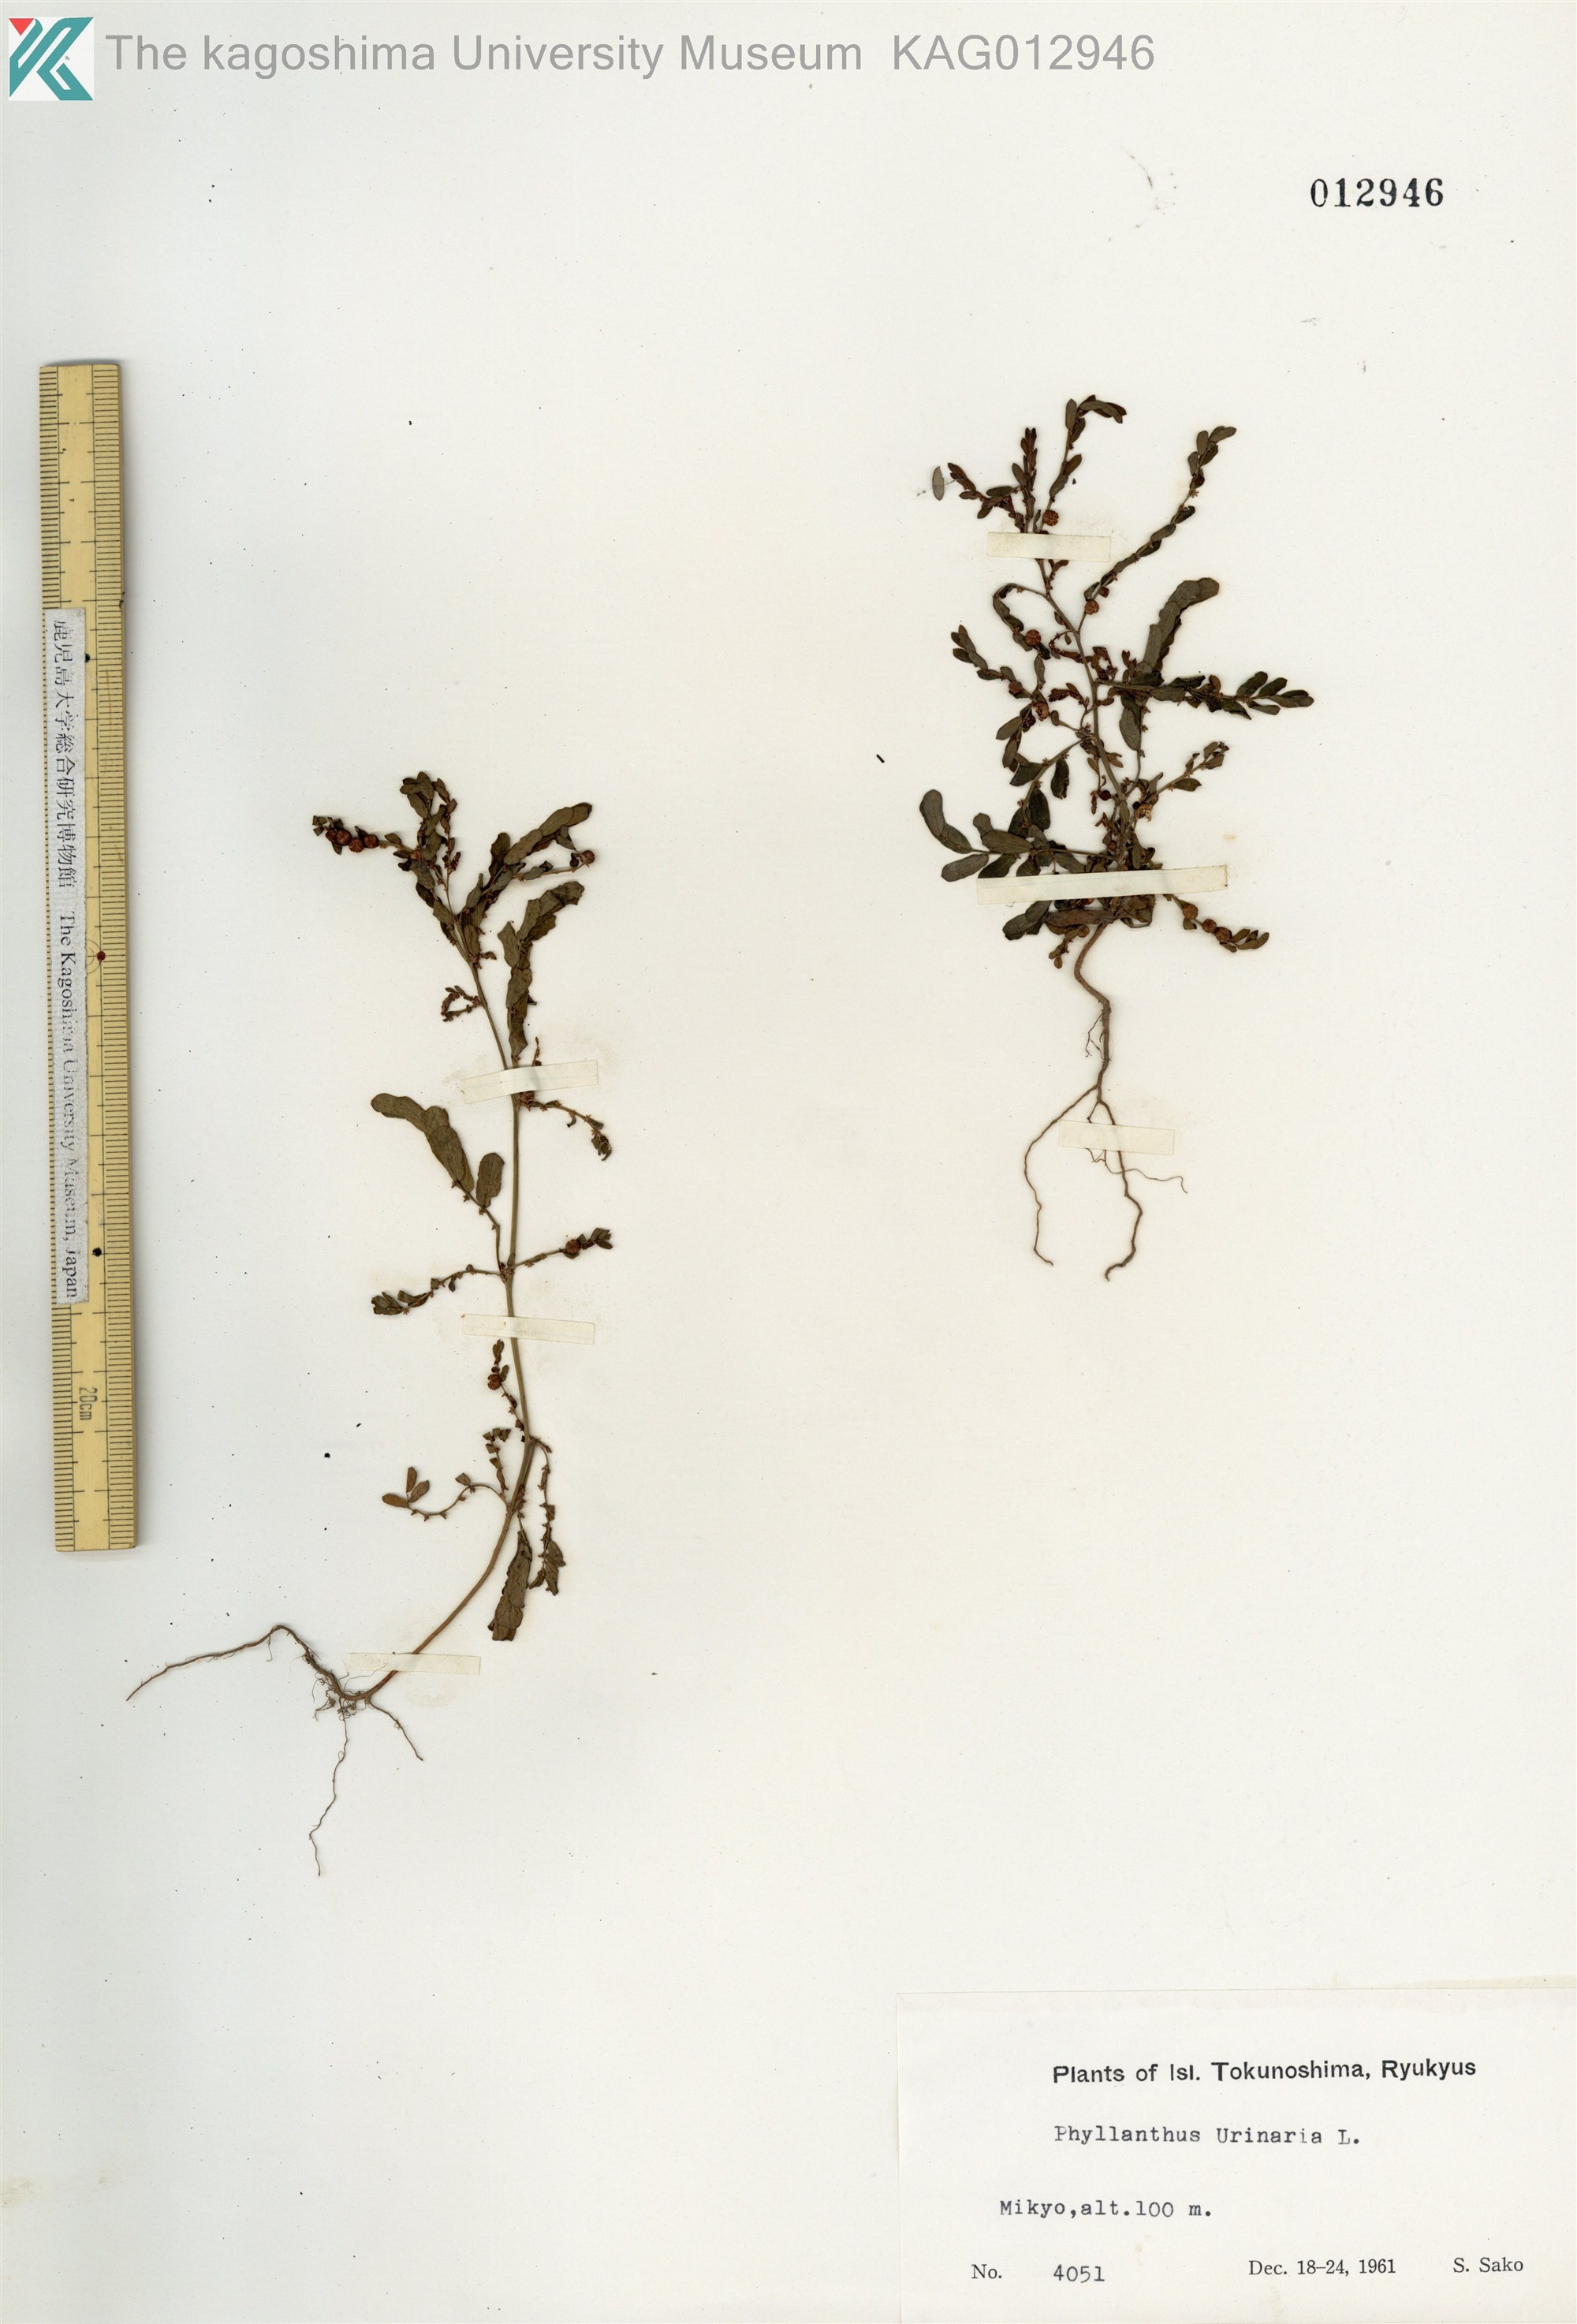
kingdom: Plantae
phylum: Tracheophyta
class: Magnoliopsida
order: Malpighiales
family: Phyllanthaceae
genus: Phyllanthus
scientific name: Phyllanthus urinaria
